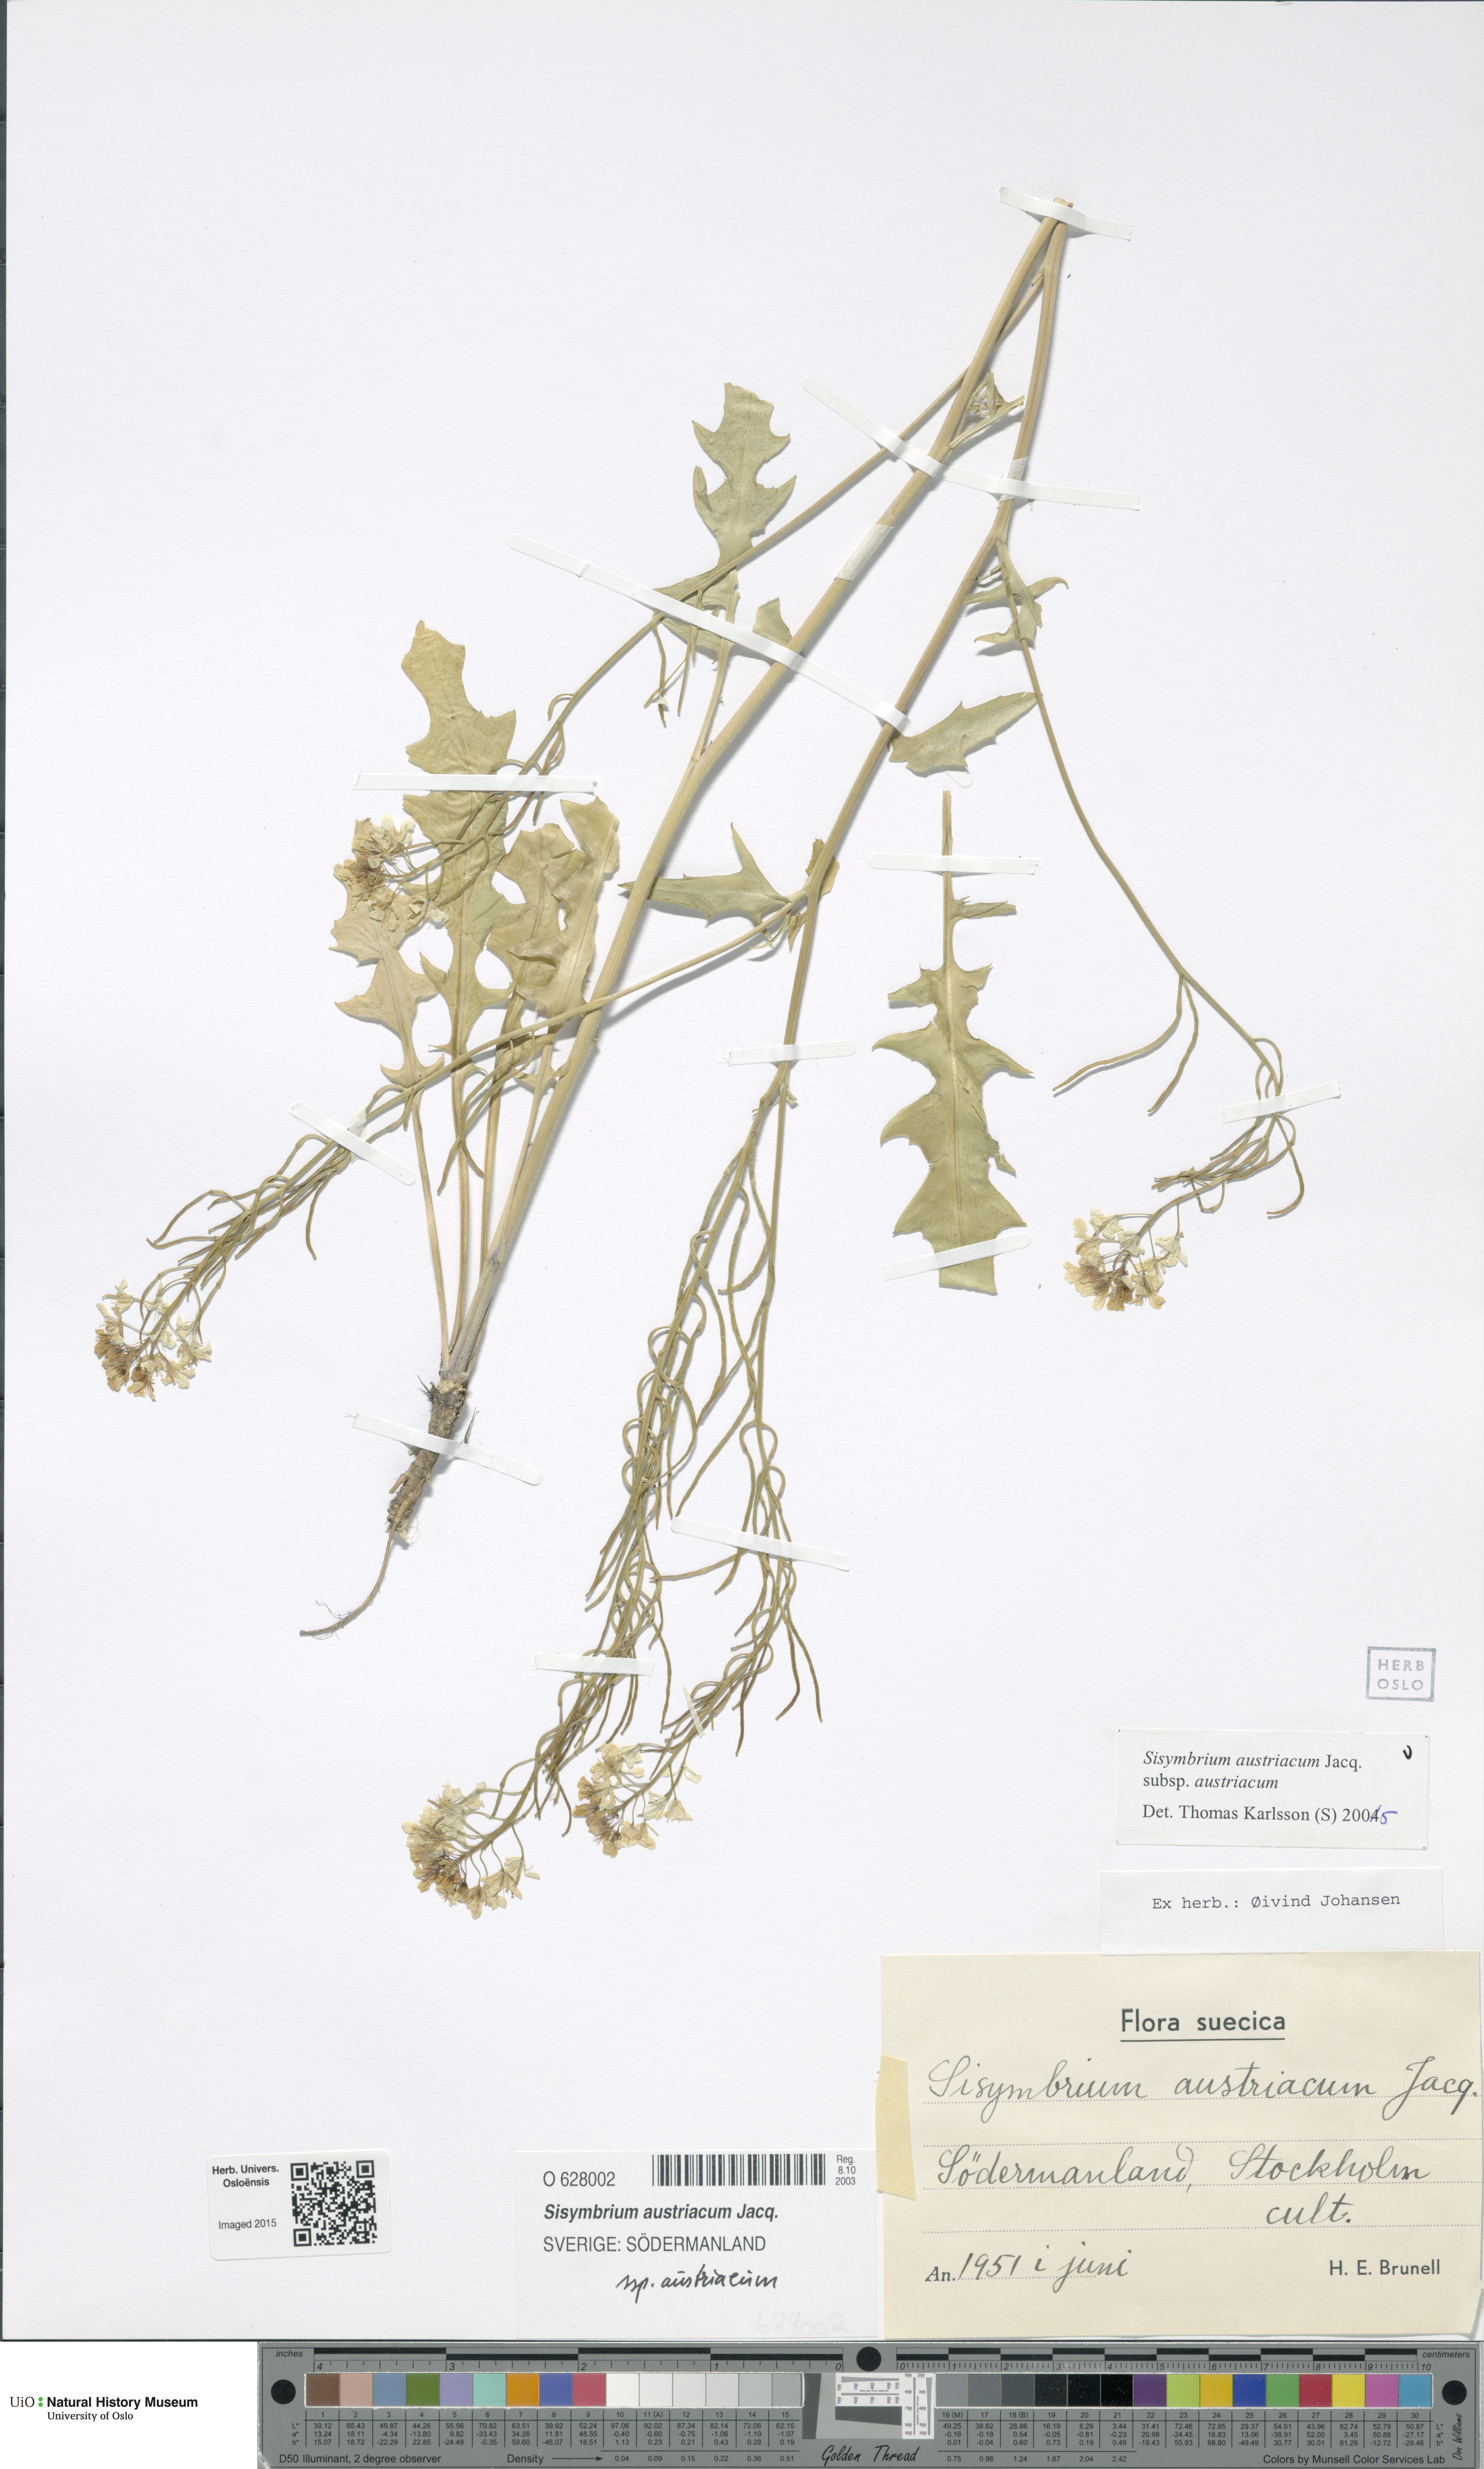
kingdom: Plantae
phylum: Tracheophyta
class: Magnoliopsida
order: Brassicales
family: Brassicaceae
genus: Sisymbrium
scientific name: Sisymbrium austriacum
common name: Jeweled rocket
